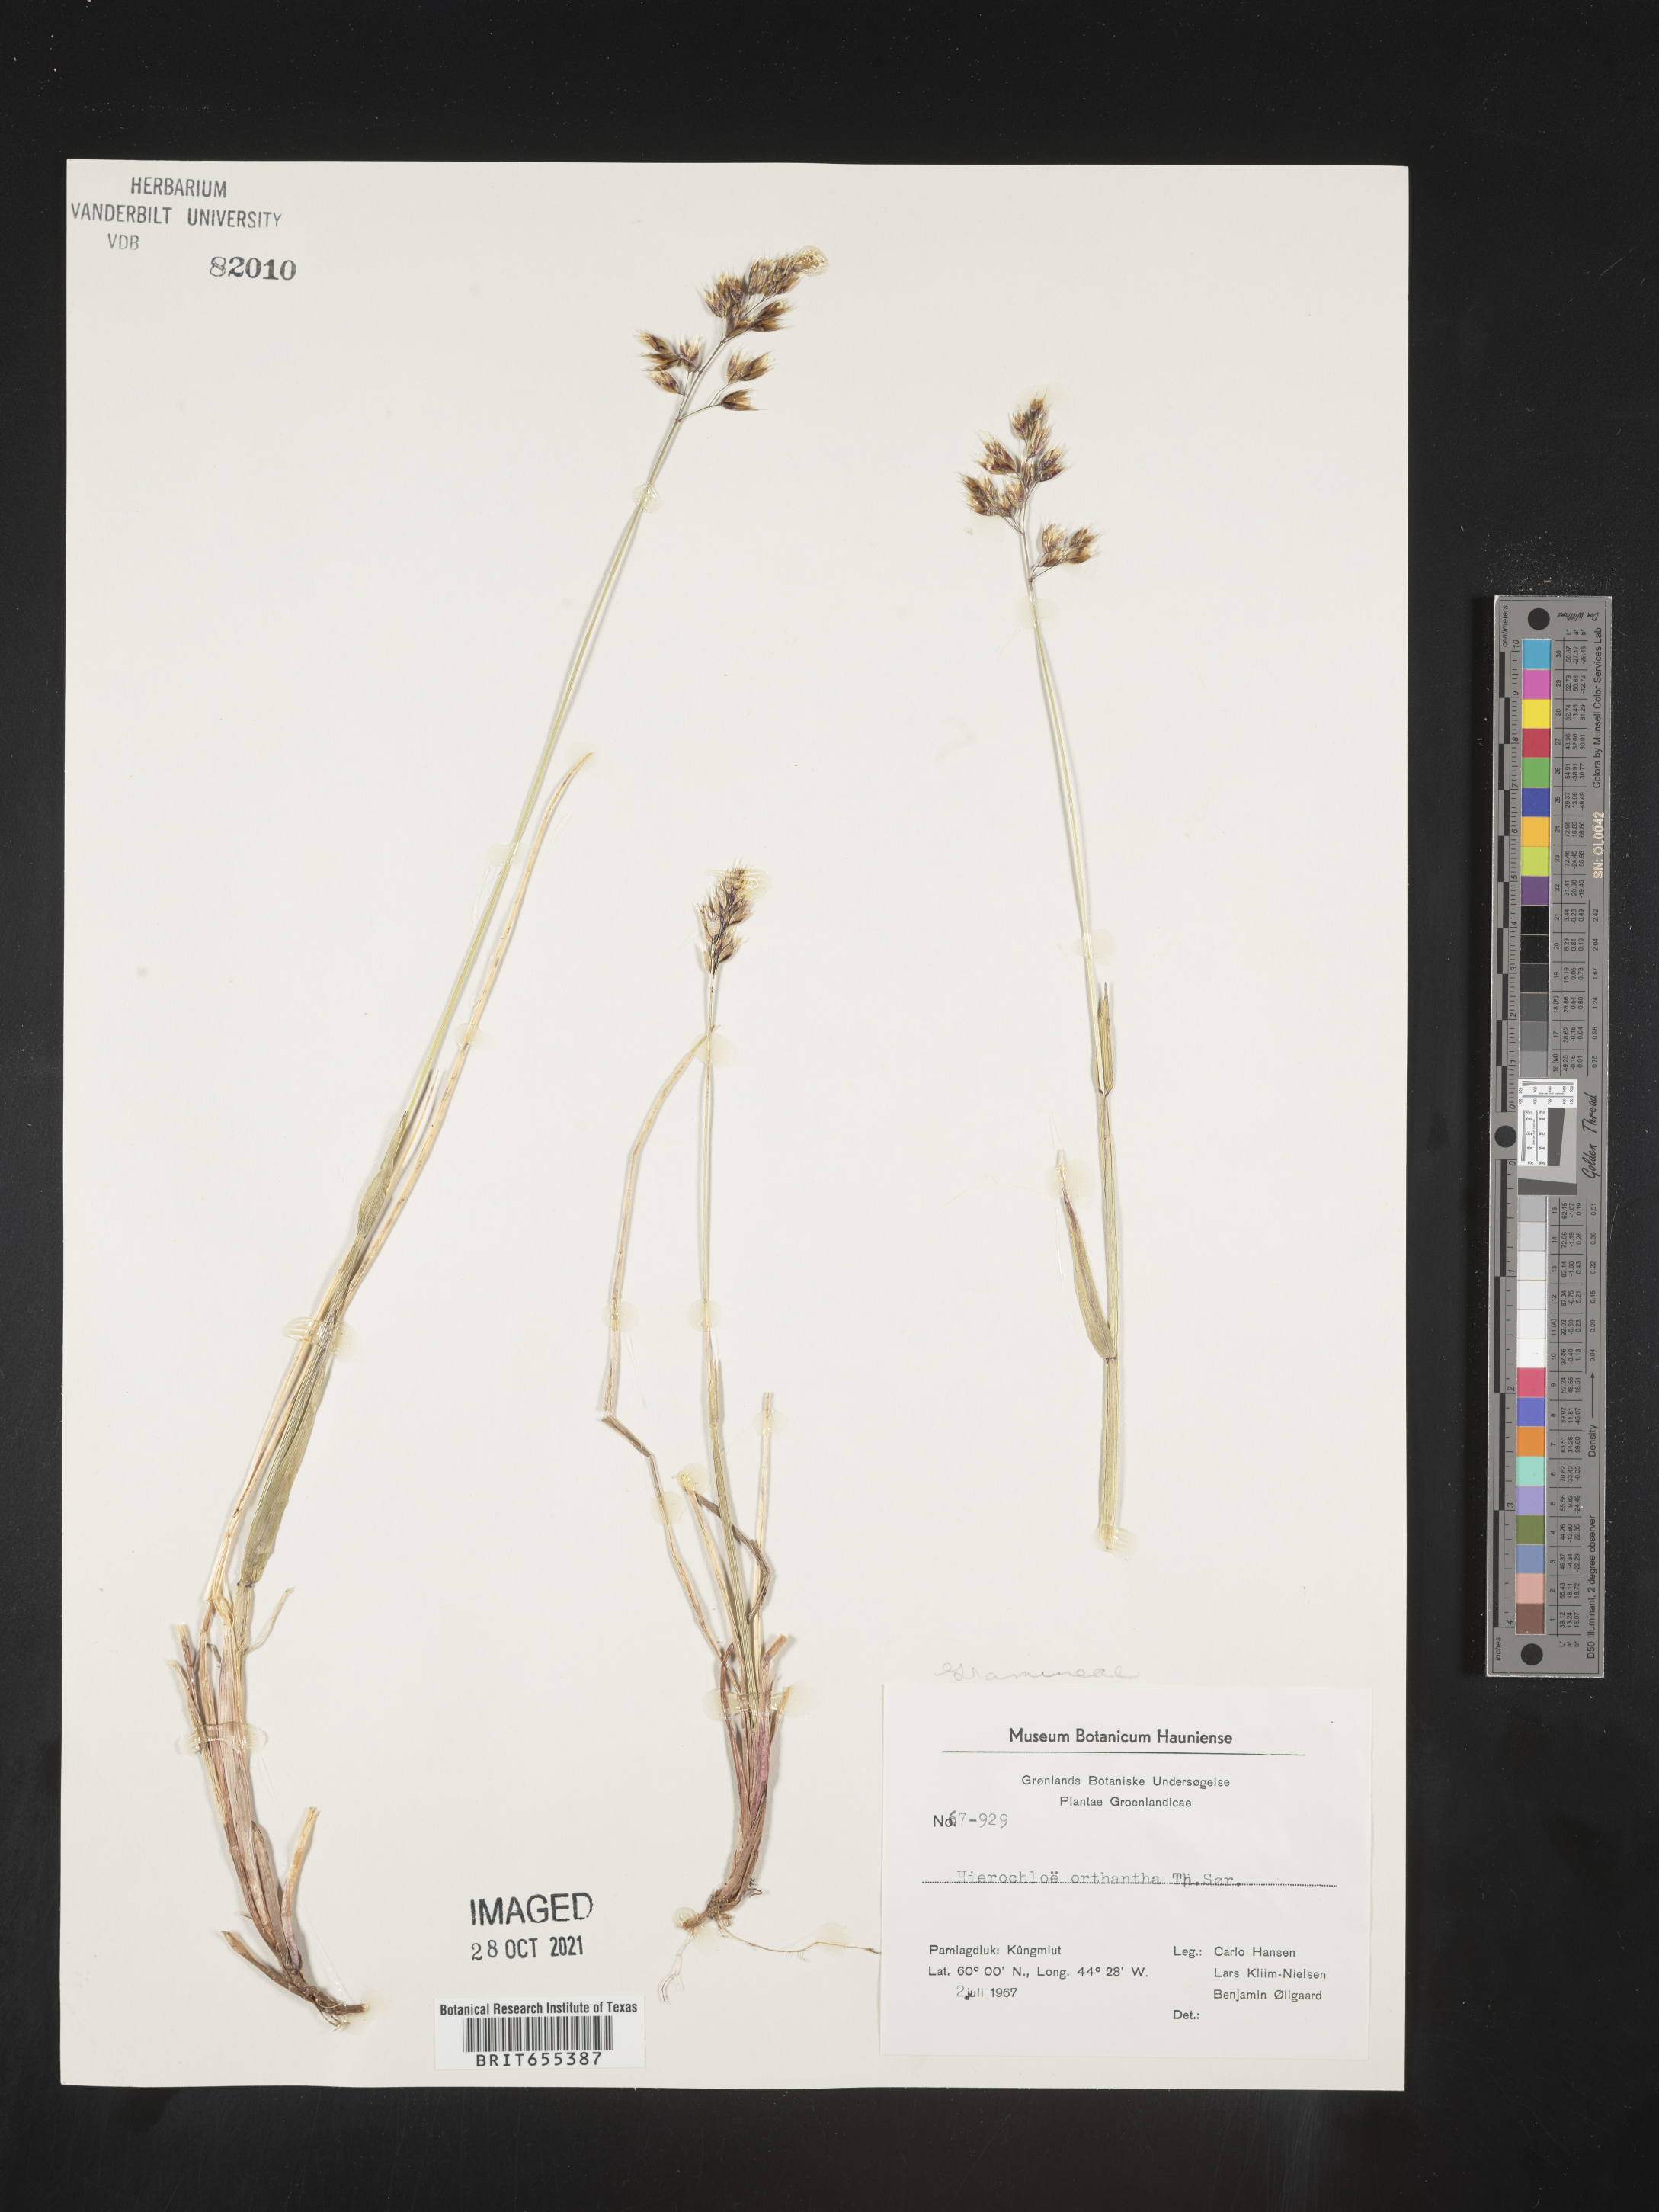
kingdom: Plantae
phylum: Tracheophyta
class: Liliopsida
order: Poales
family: Poaceae
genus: Hierochloe
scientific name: Hierochloe
